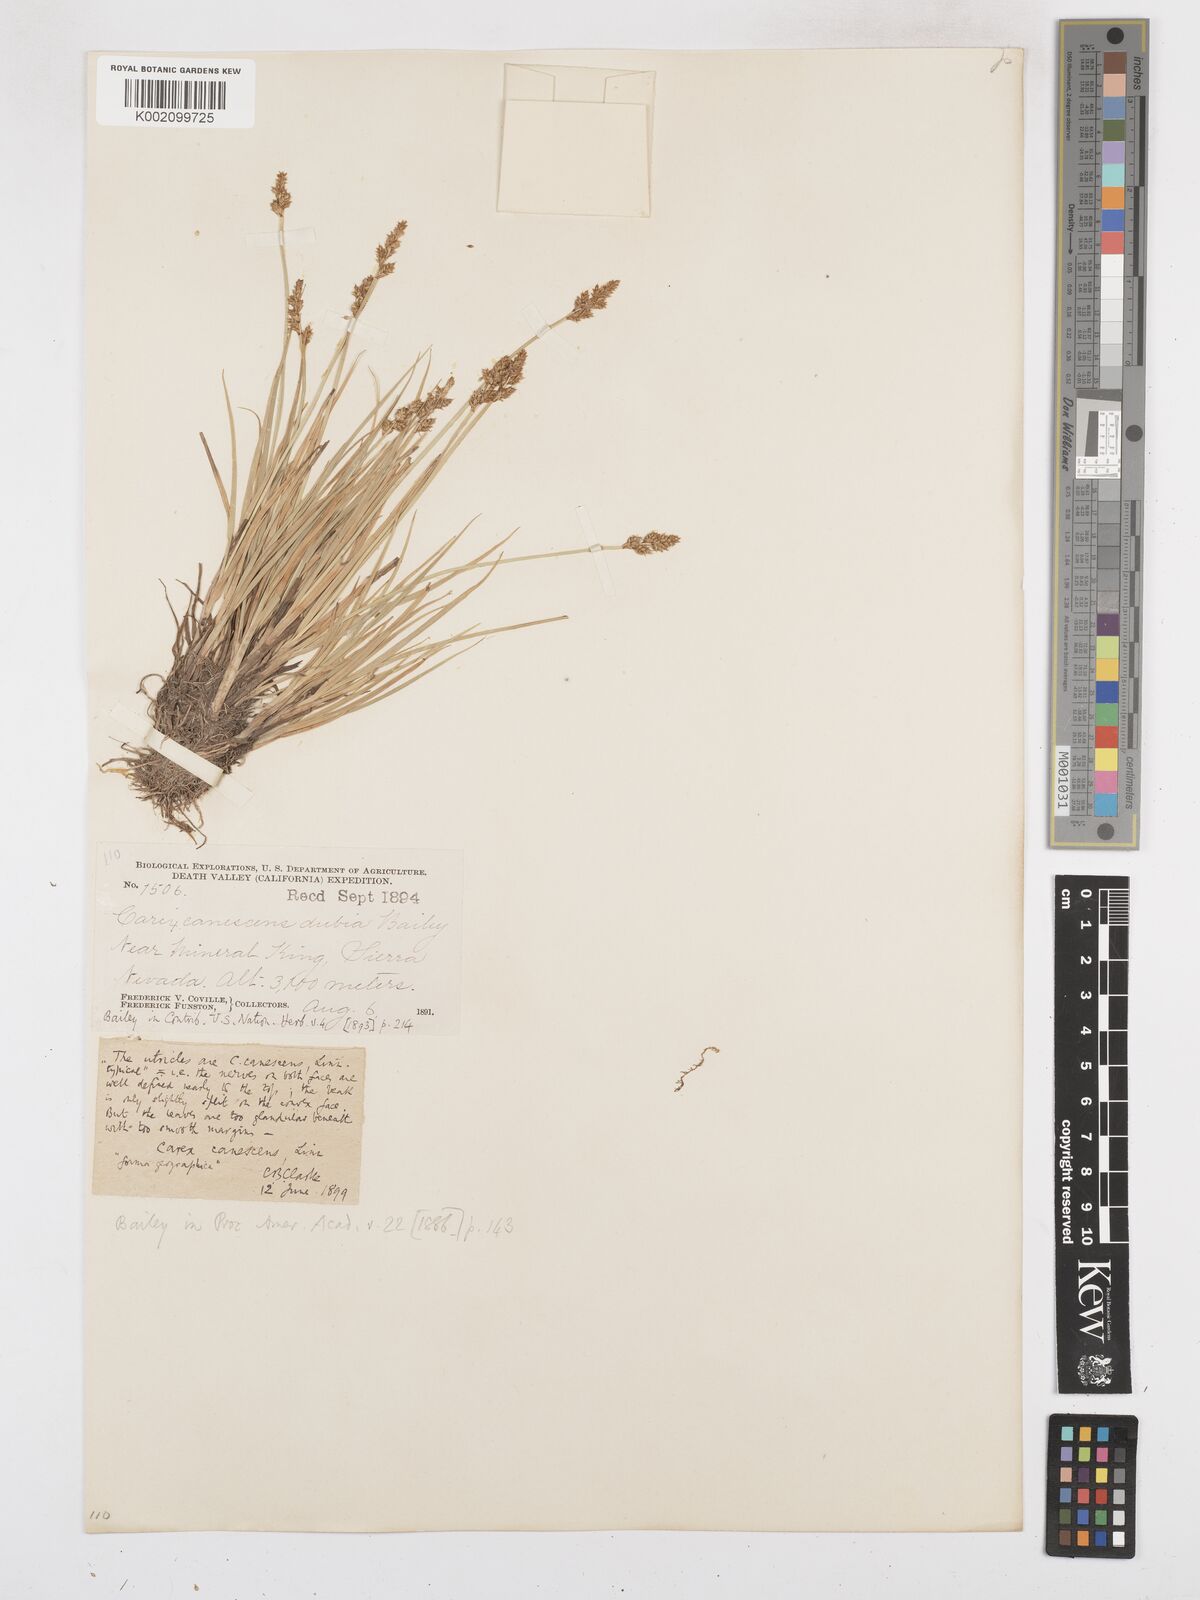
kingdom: Plantae
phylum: Tracheophyta
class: Liliopsida
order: Poales
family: Cyperaceae
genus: Carex
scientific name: Carex praeceptorum
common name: Early sedge
